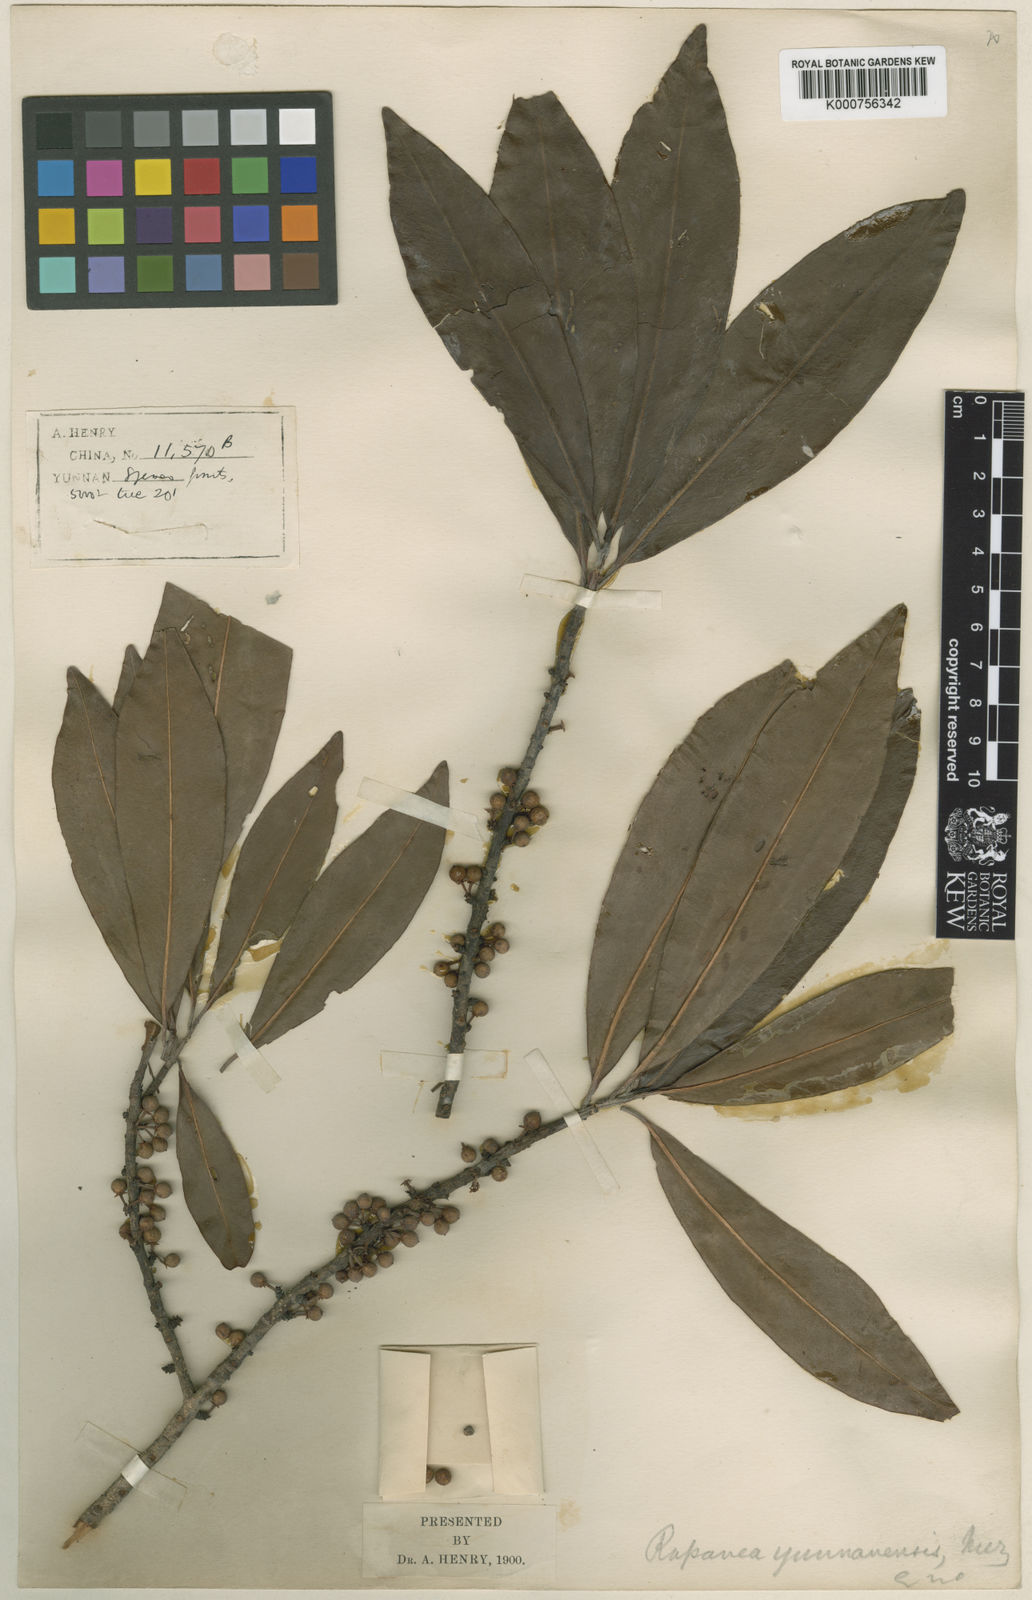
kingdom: Plantae
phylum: Tracheophyta
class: Magnoliopsida
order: Ericales
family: Primulaceae
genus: Myrsine
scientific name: Myrsine
